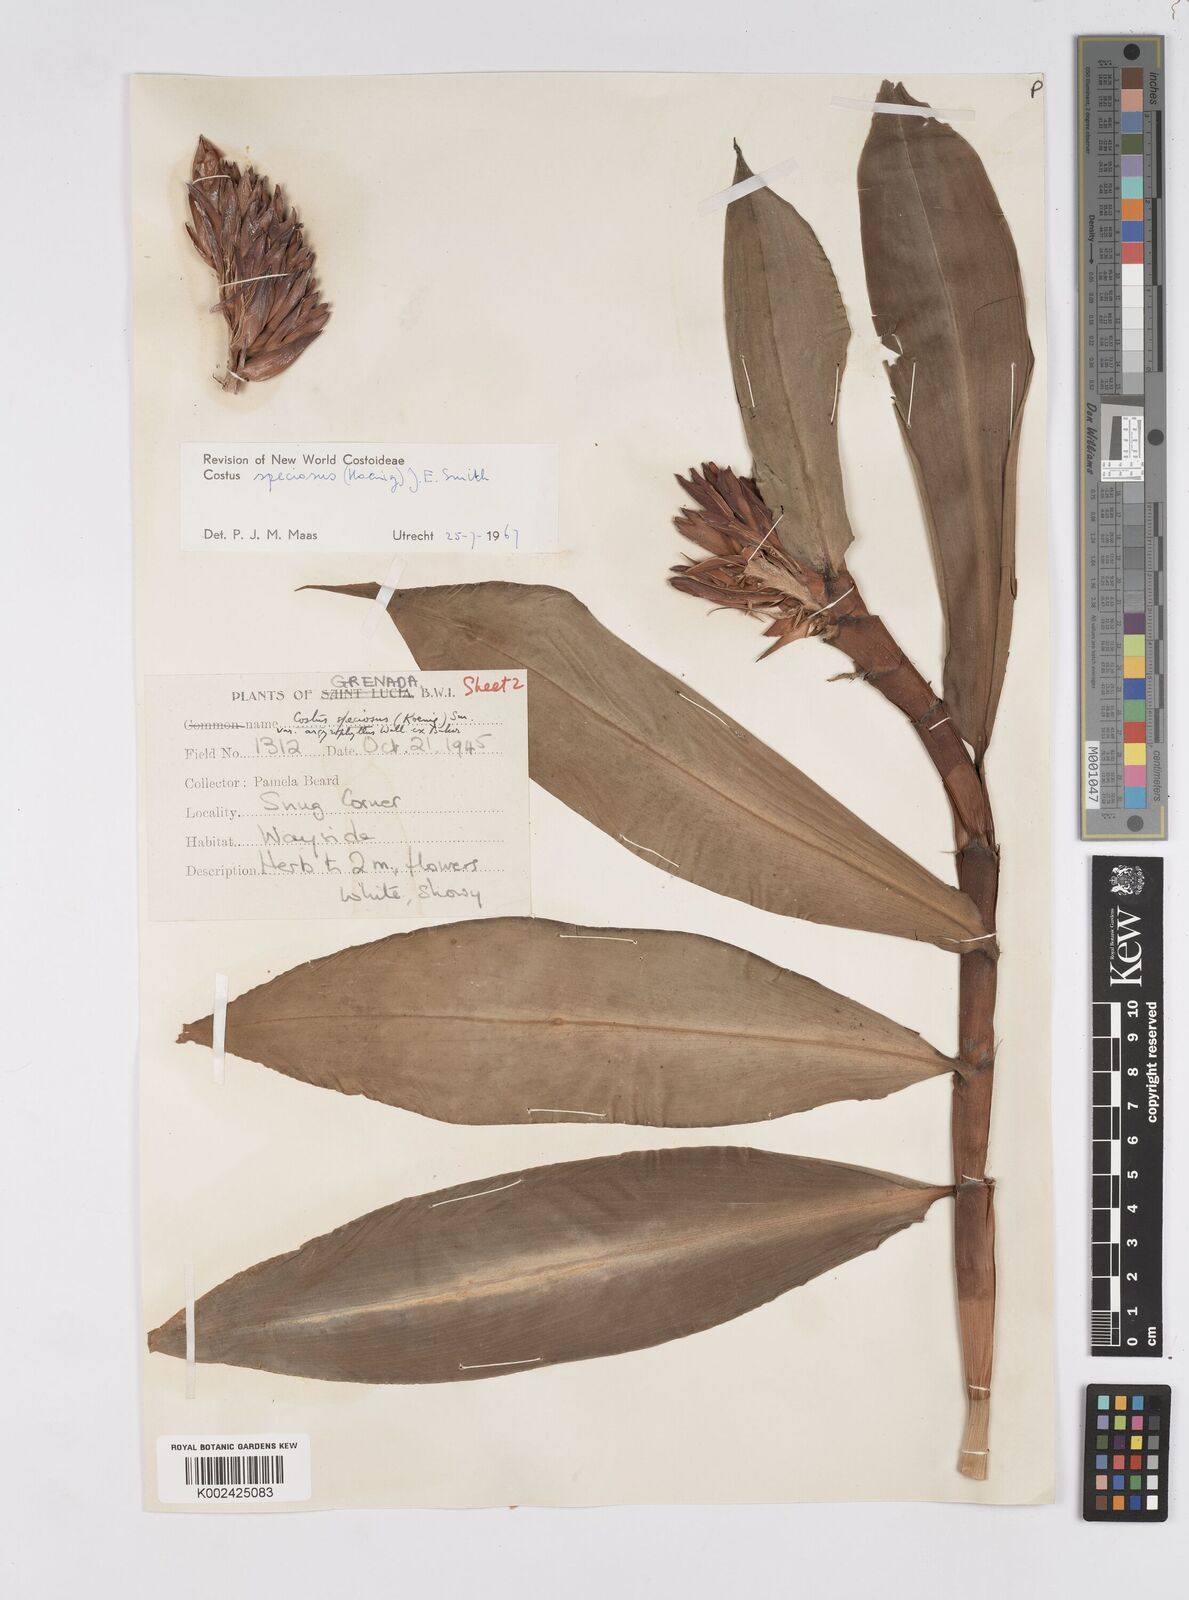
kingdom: Plantae
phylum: Tracheophyta
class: Liliopsida
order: Zingiberales
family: Costaceae
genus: Hellenia
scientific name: Hellenia speciosa
